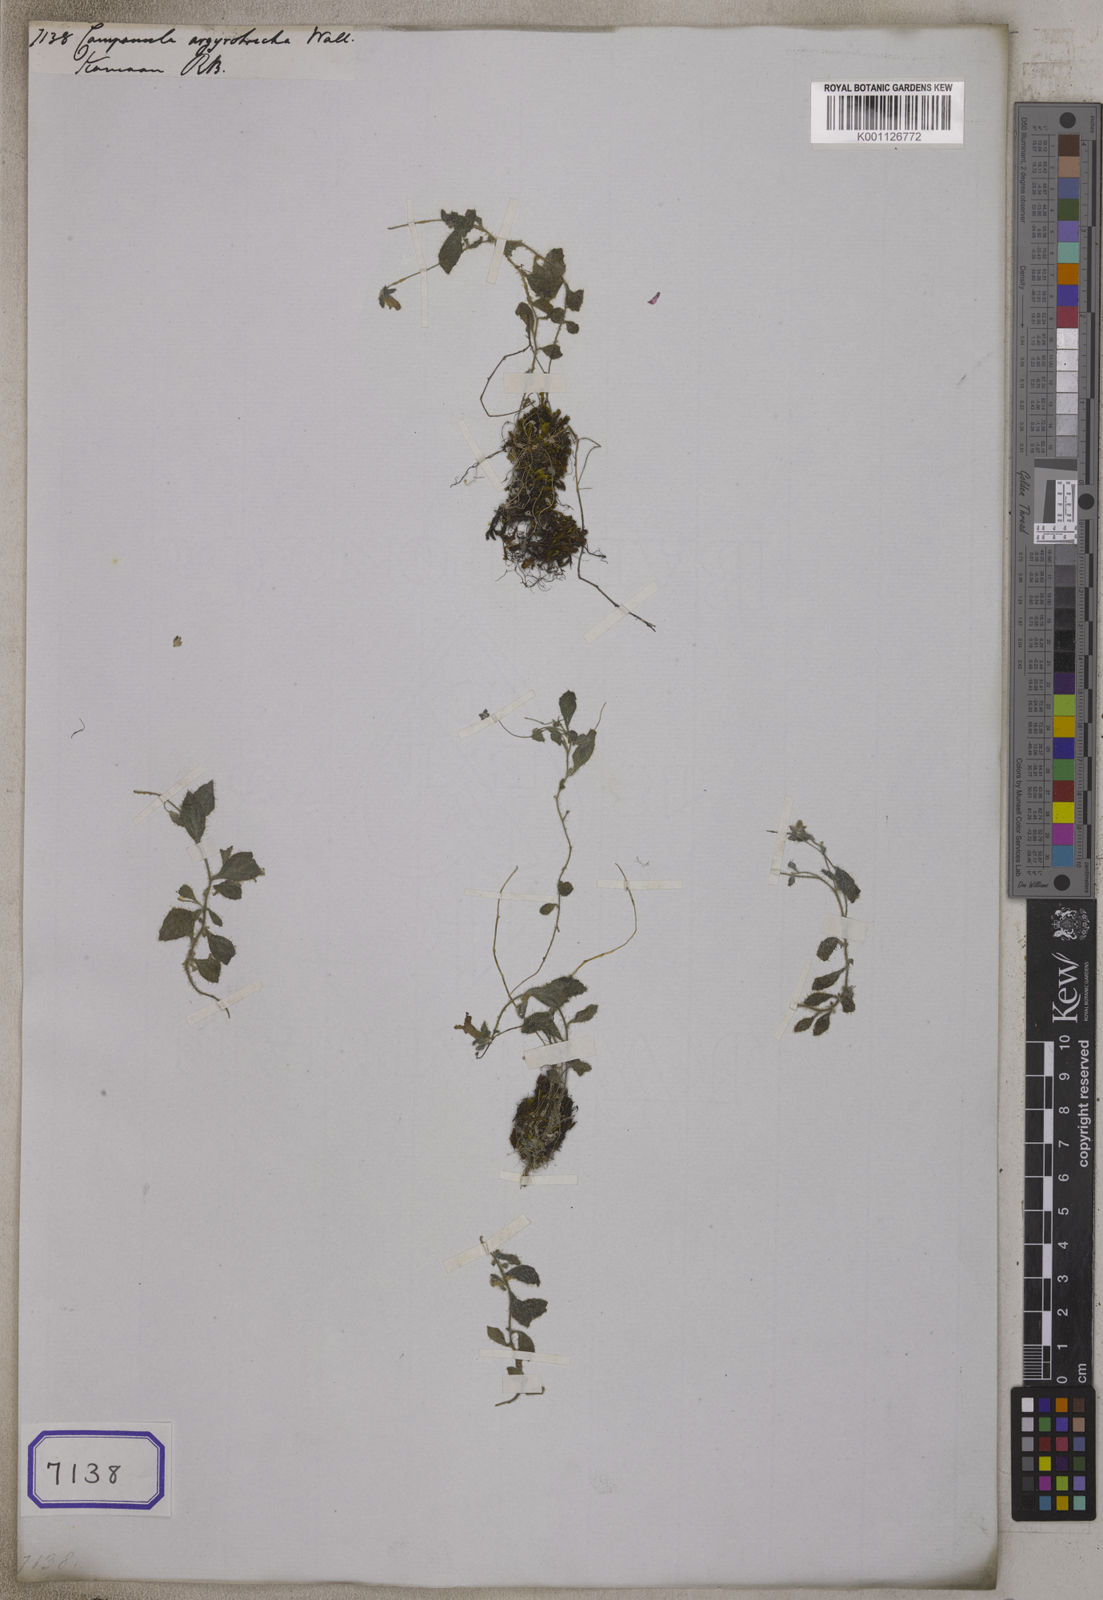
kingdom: Plantae
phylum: Tracheophyta
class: Magnoliopsida
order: Asterales
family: Campanulaceae
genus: Campanula
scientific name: Campanula
